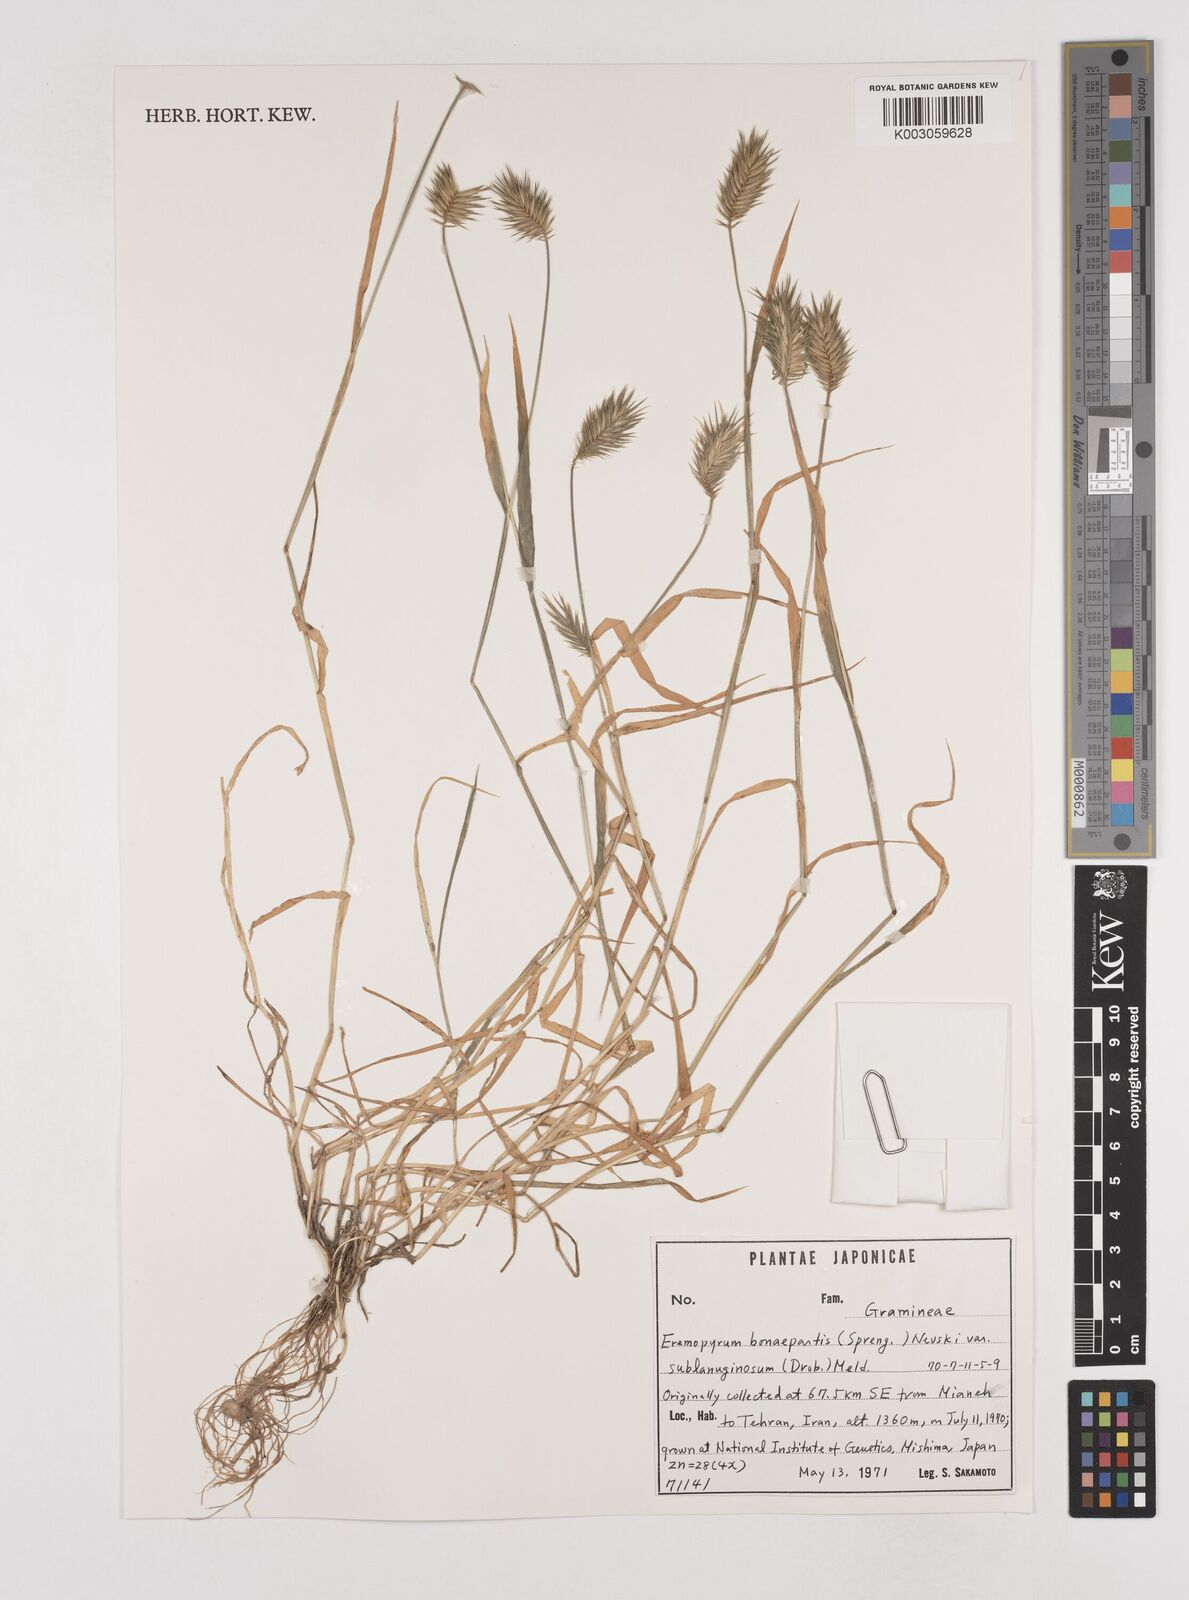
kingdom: Plantae
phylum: Tracheophyta
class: Liliopsida
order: Poales
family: Poaceae
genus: Eremopyrum
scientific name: Eremopyrum bonaepartis
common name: Tapertip false wheatgrass
